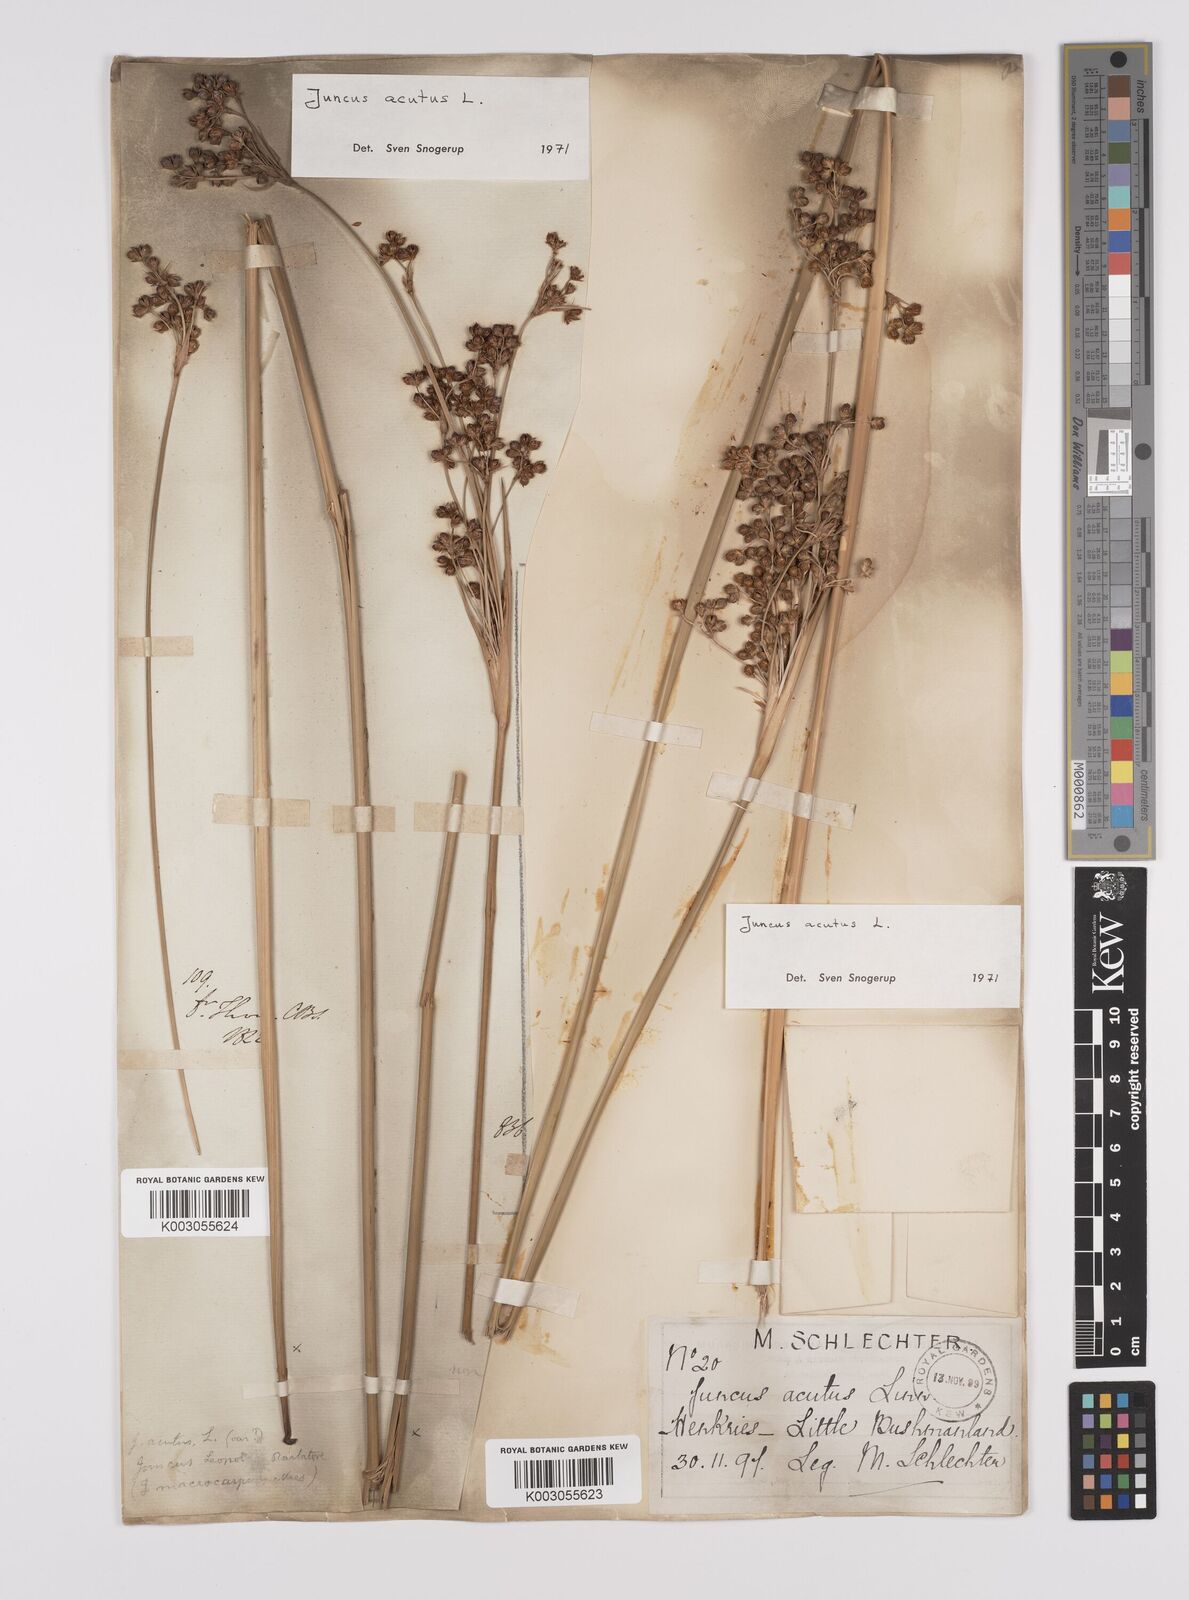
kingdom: Plantae
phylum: Tracheophyta
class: Liliopsida
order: Poales
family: Juncaceae
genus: Juncus
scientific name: Juncus acutus
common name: Sharp rush
